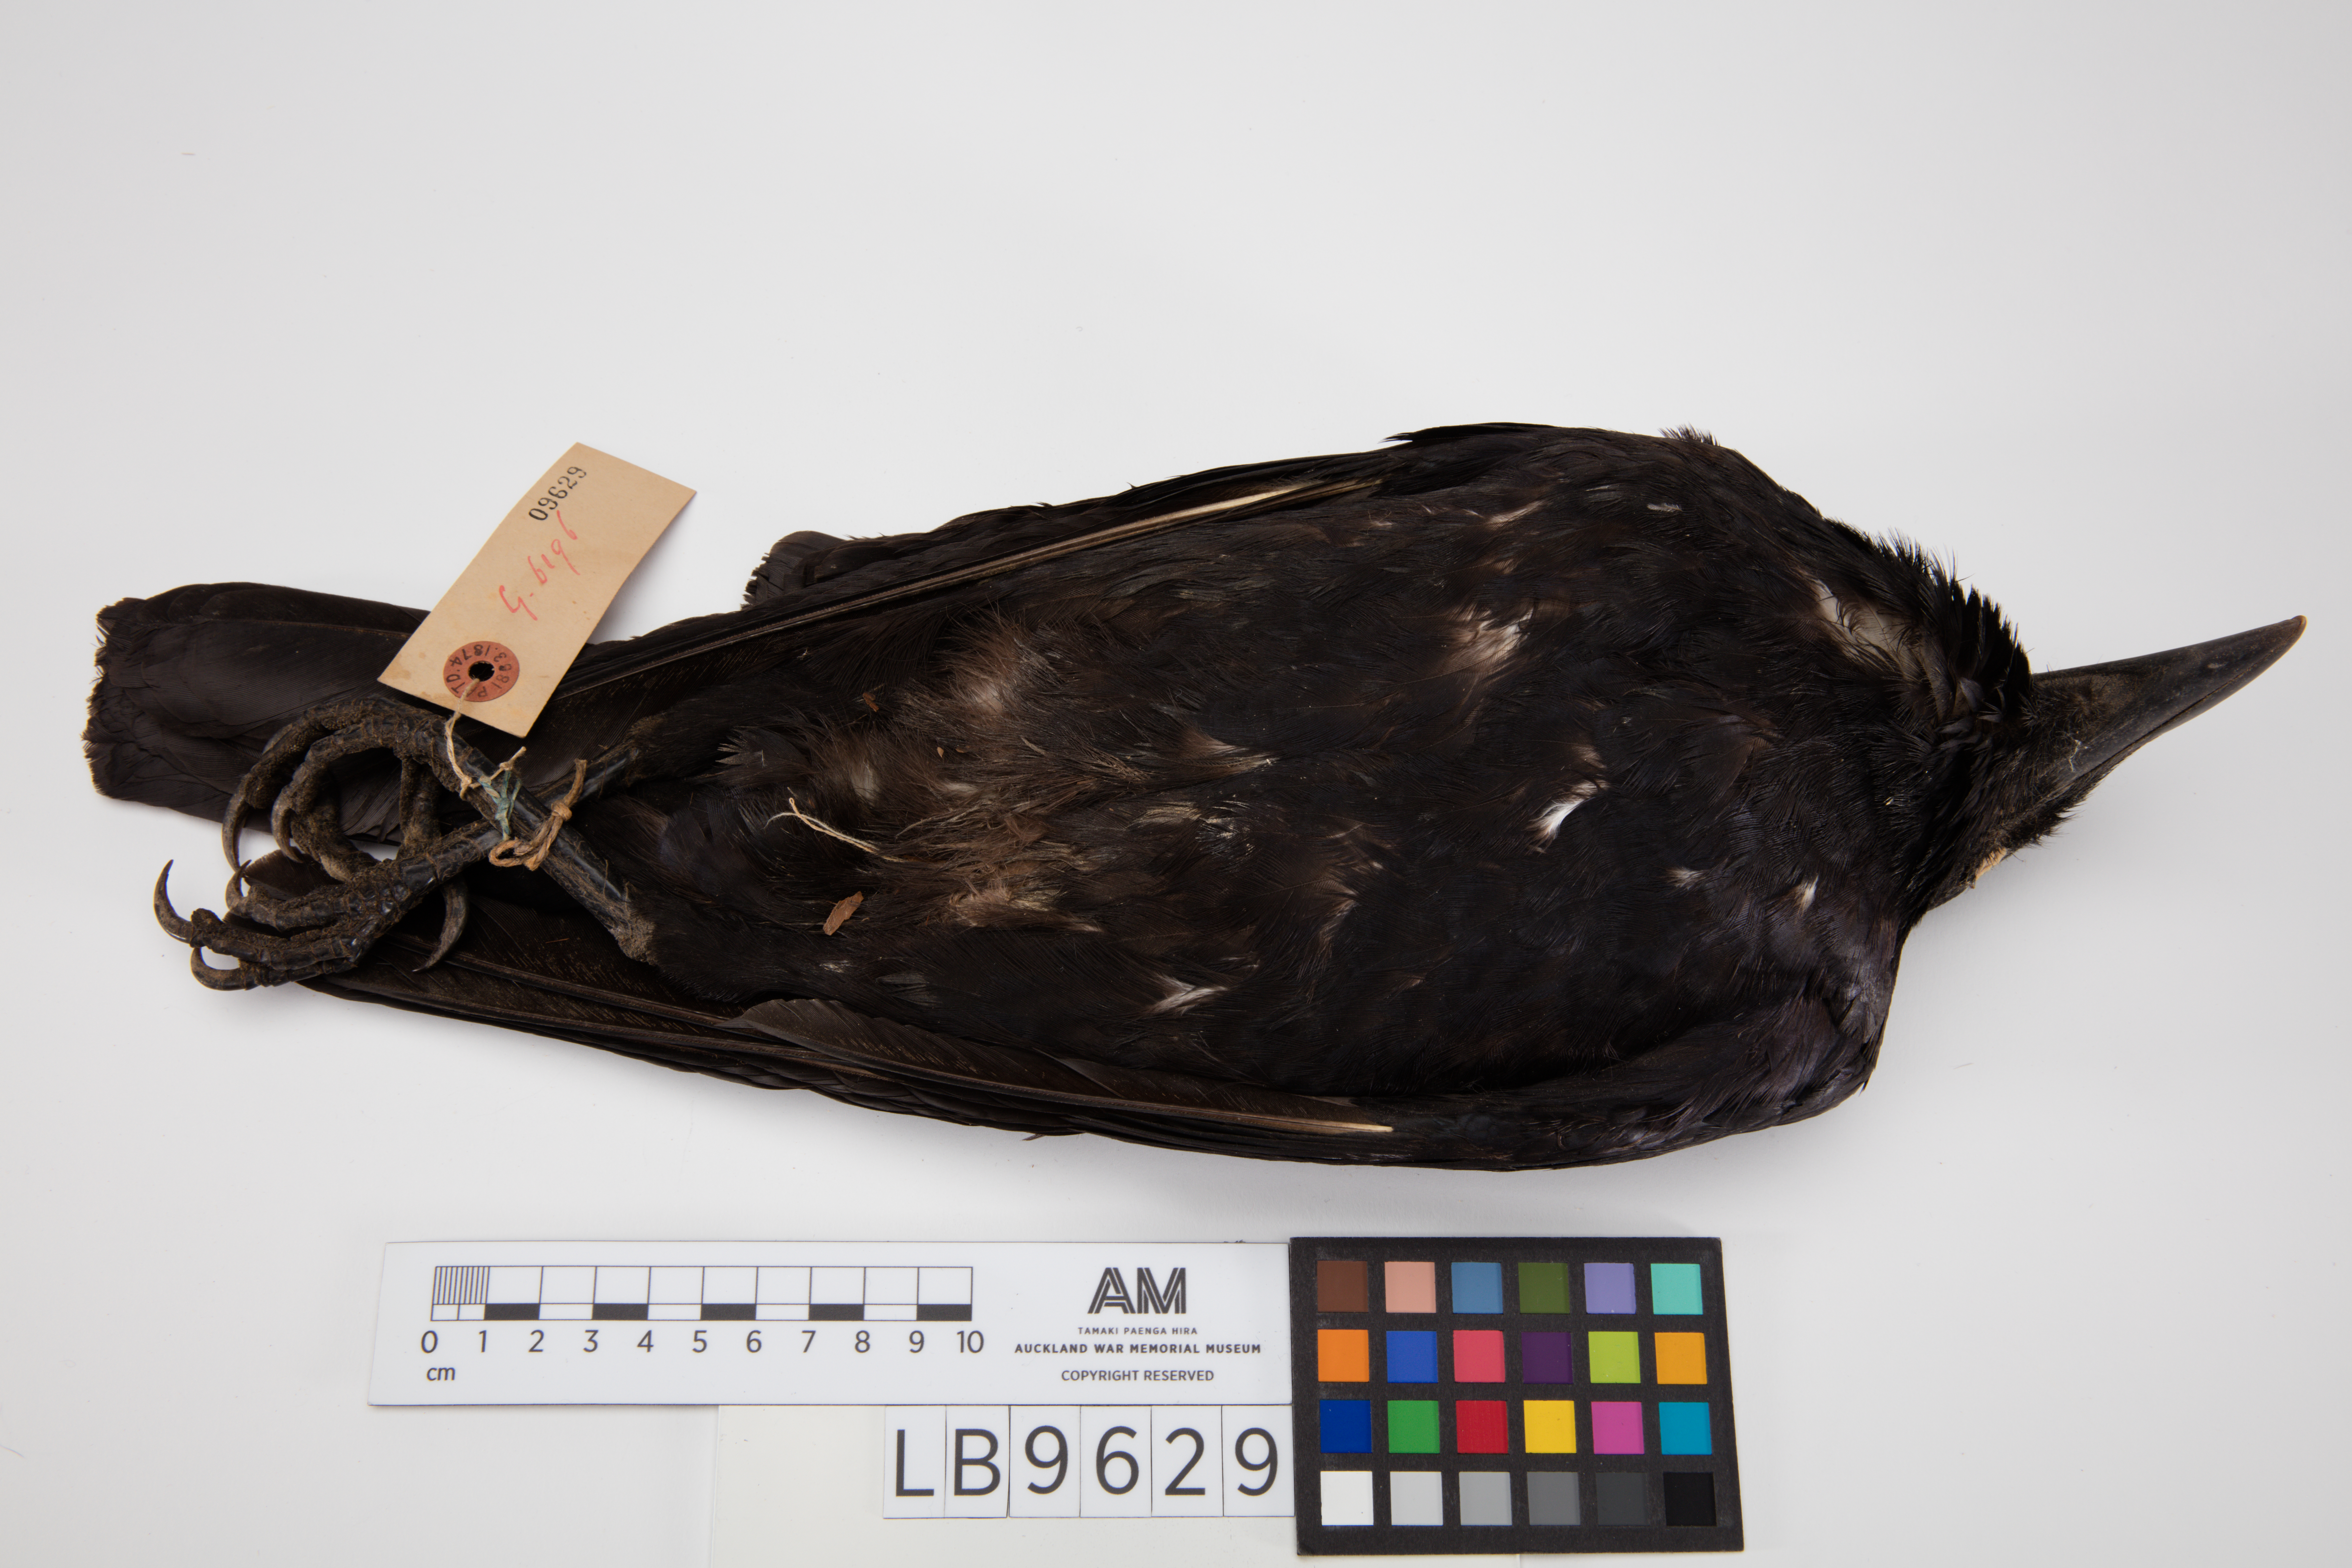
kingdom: Animalia
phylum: Chordata
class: Aves
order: Passeriformes
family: Corvidae
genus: Corvus
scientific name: Corvus orru
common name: Torresian crow
